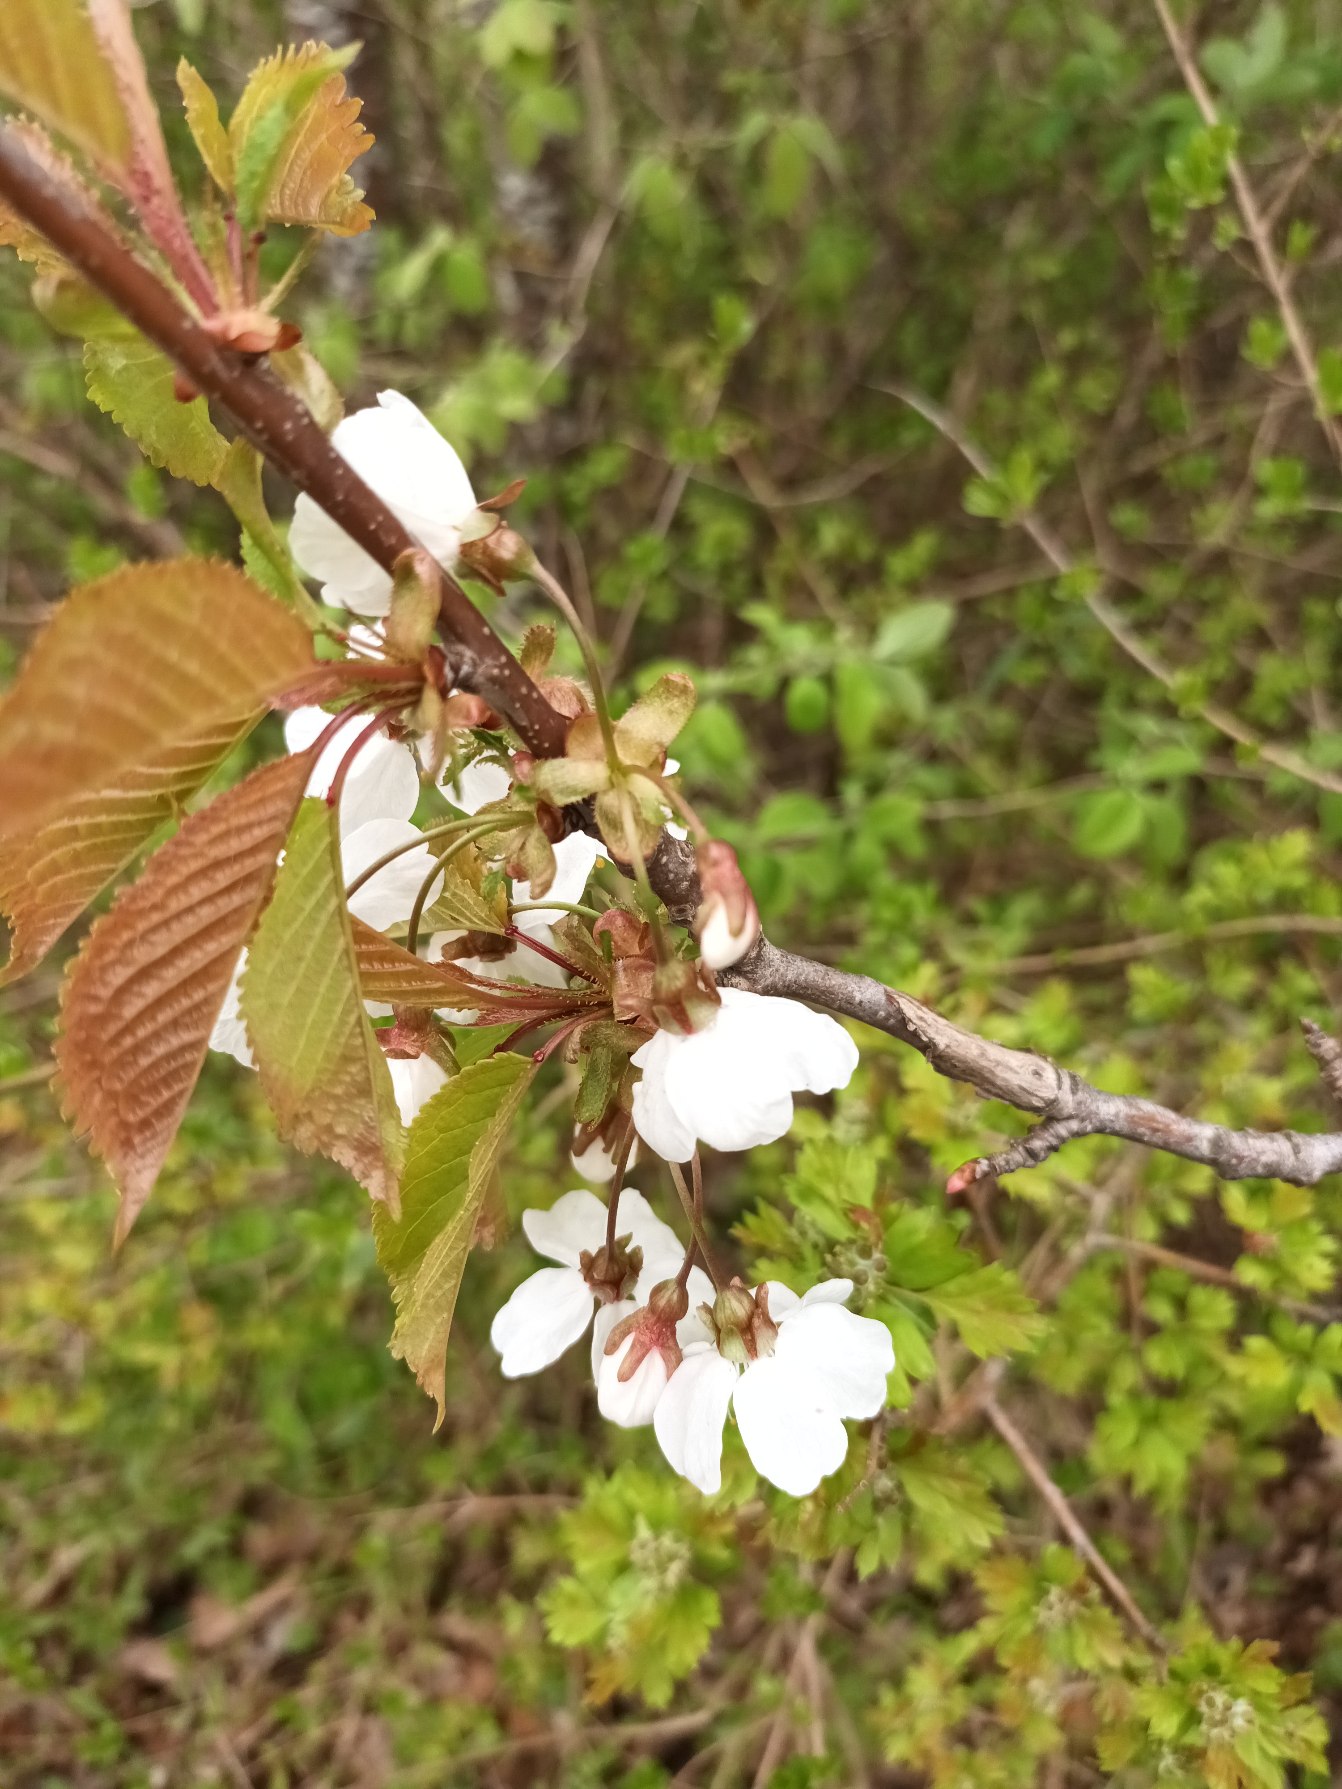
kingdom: Plantae
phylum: Tracheophyta
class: Magnoliopsida
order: Rosales
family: Rosaceae
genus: Prunus
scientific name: Prunus avium
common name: Fugle-kirsebær
